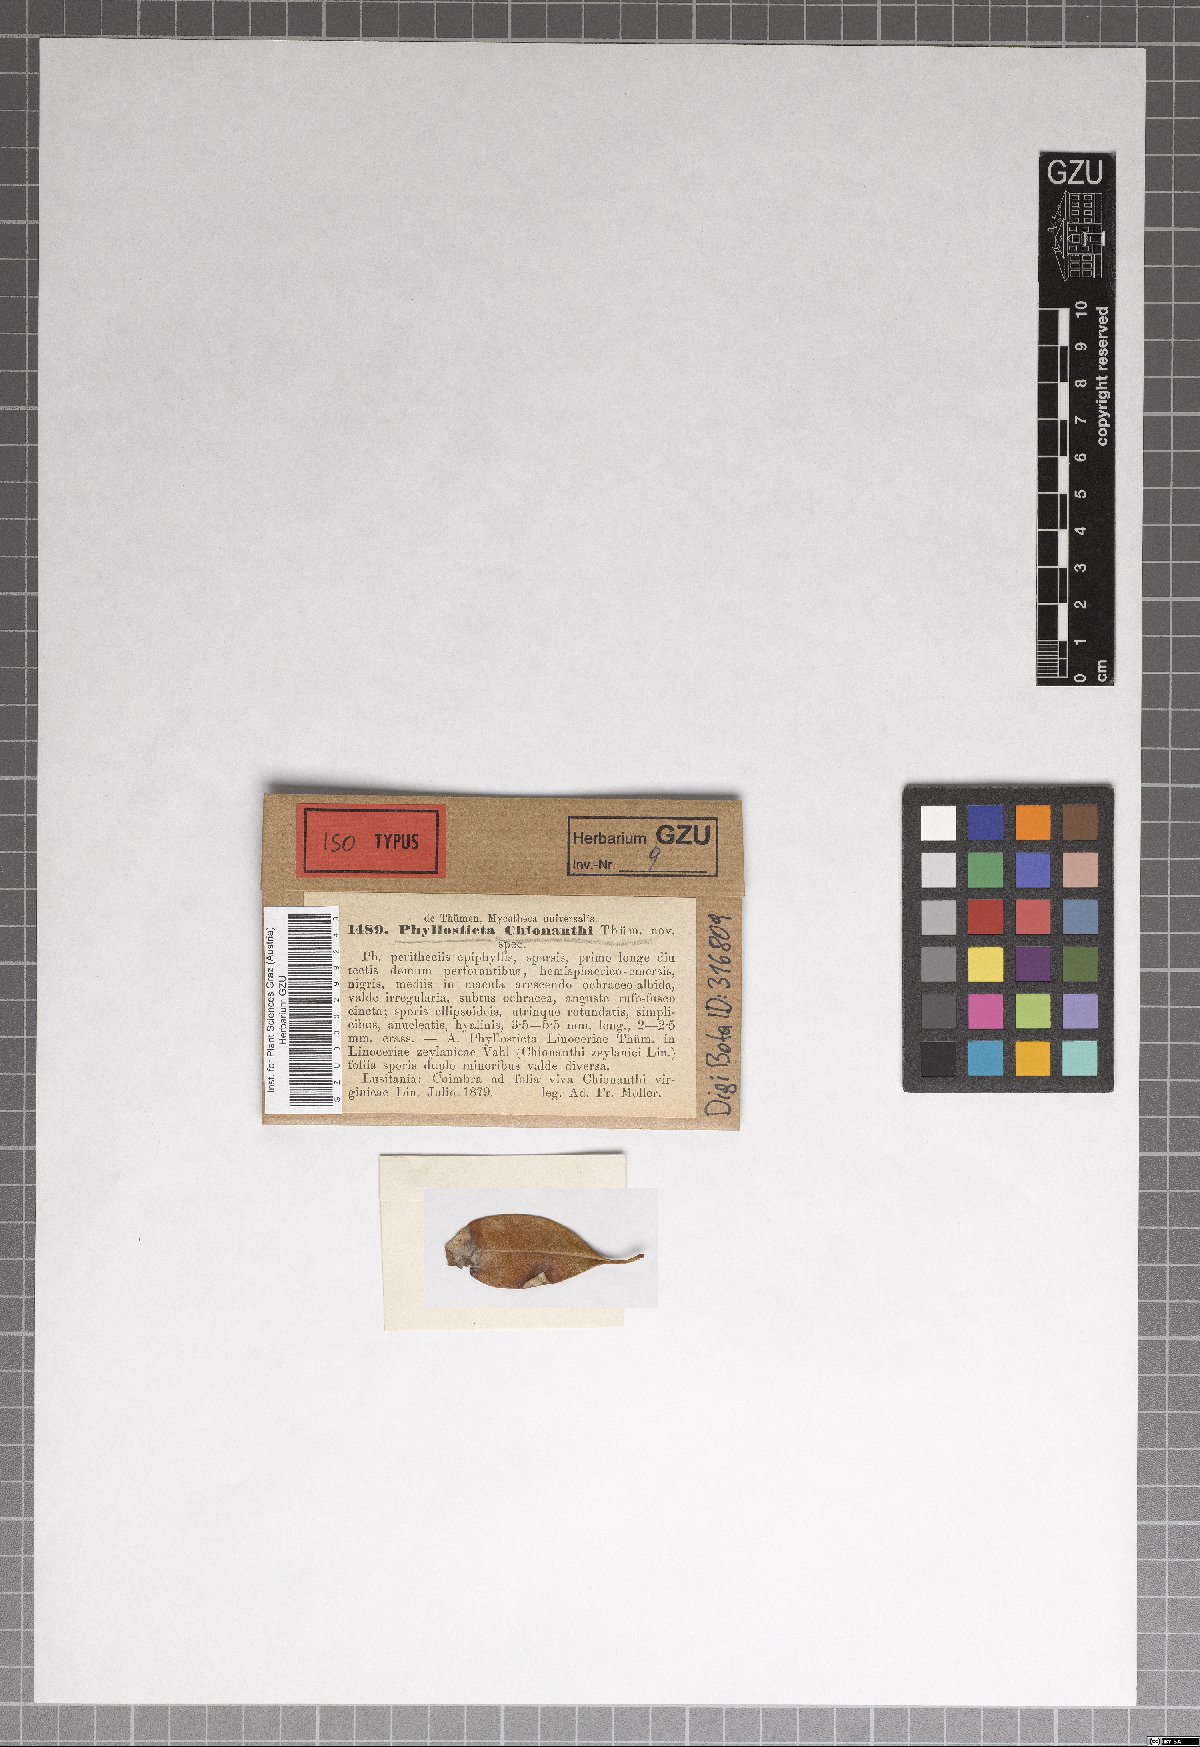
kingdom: Fungi
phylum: Ascomycota
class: Dothideomycetes
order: Botryosphaeriales
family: Botryosphaeriaceae
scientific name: Botryosphaeriaceae
